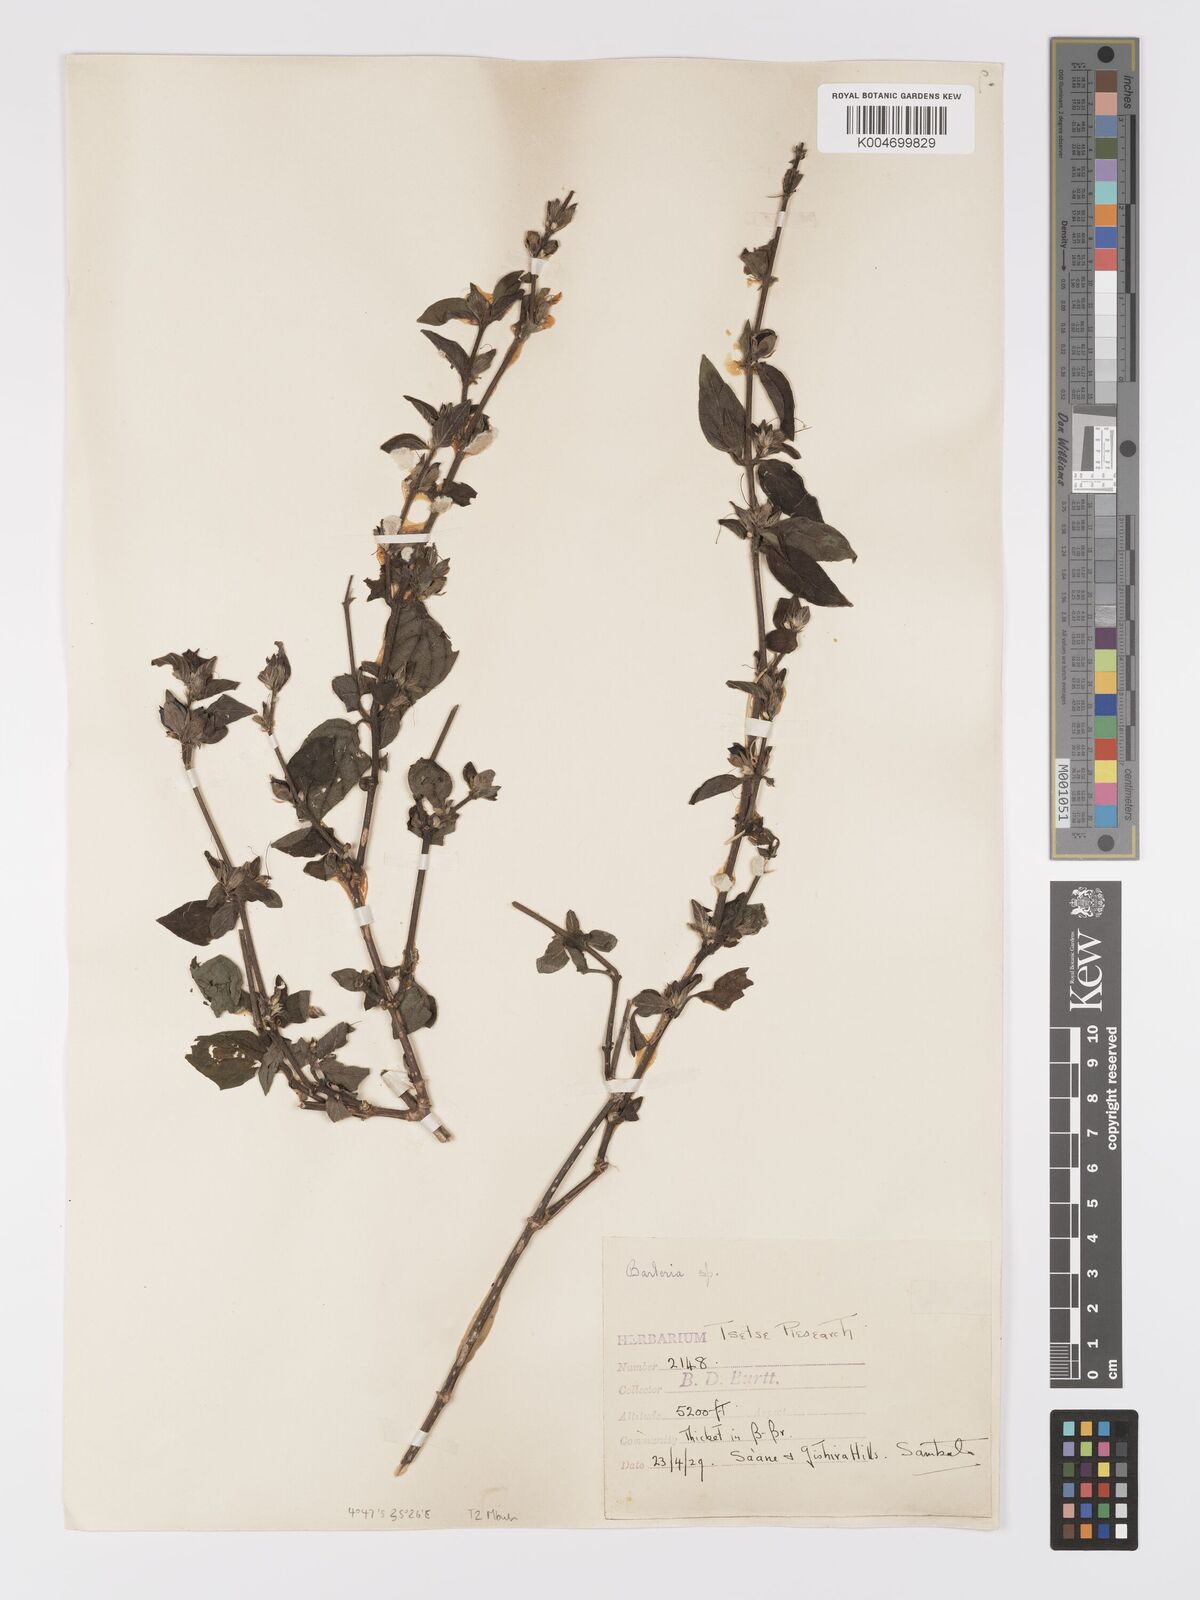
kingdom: Plantae
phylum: Tracheophyta
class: Magnoliopsida
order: Lamiales
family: Acanthaceae
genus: Barleria
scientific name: Barleria ventricosa
